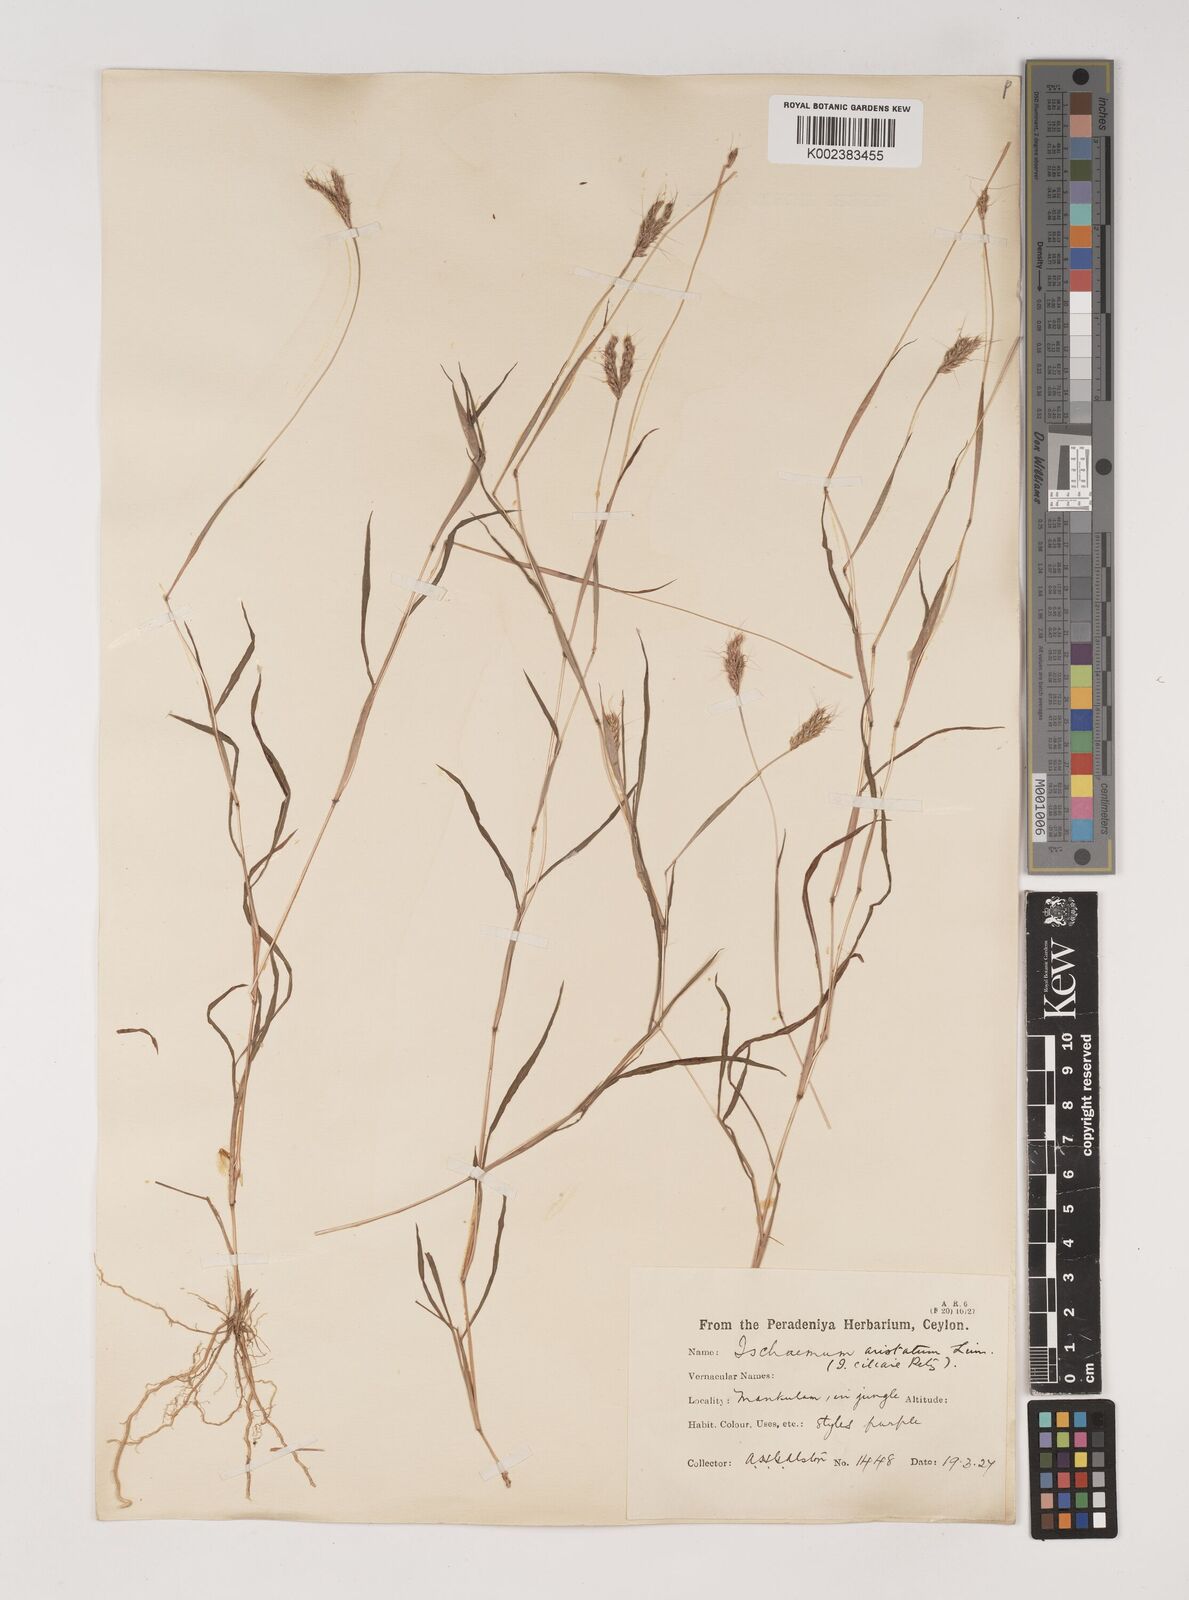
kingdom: Plantae
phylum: Tracheophyta
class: Liliopsida
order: Poales
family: Poaceae
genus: Polytrias
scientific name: Polytrias indica
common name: Indian murainagrass
